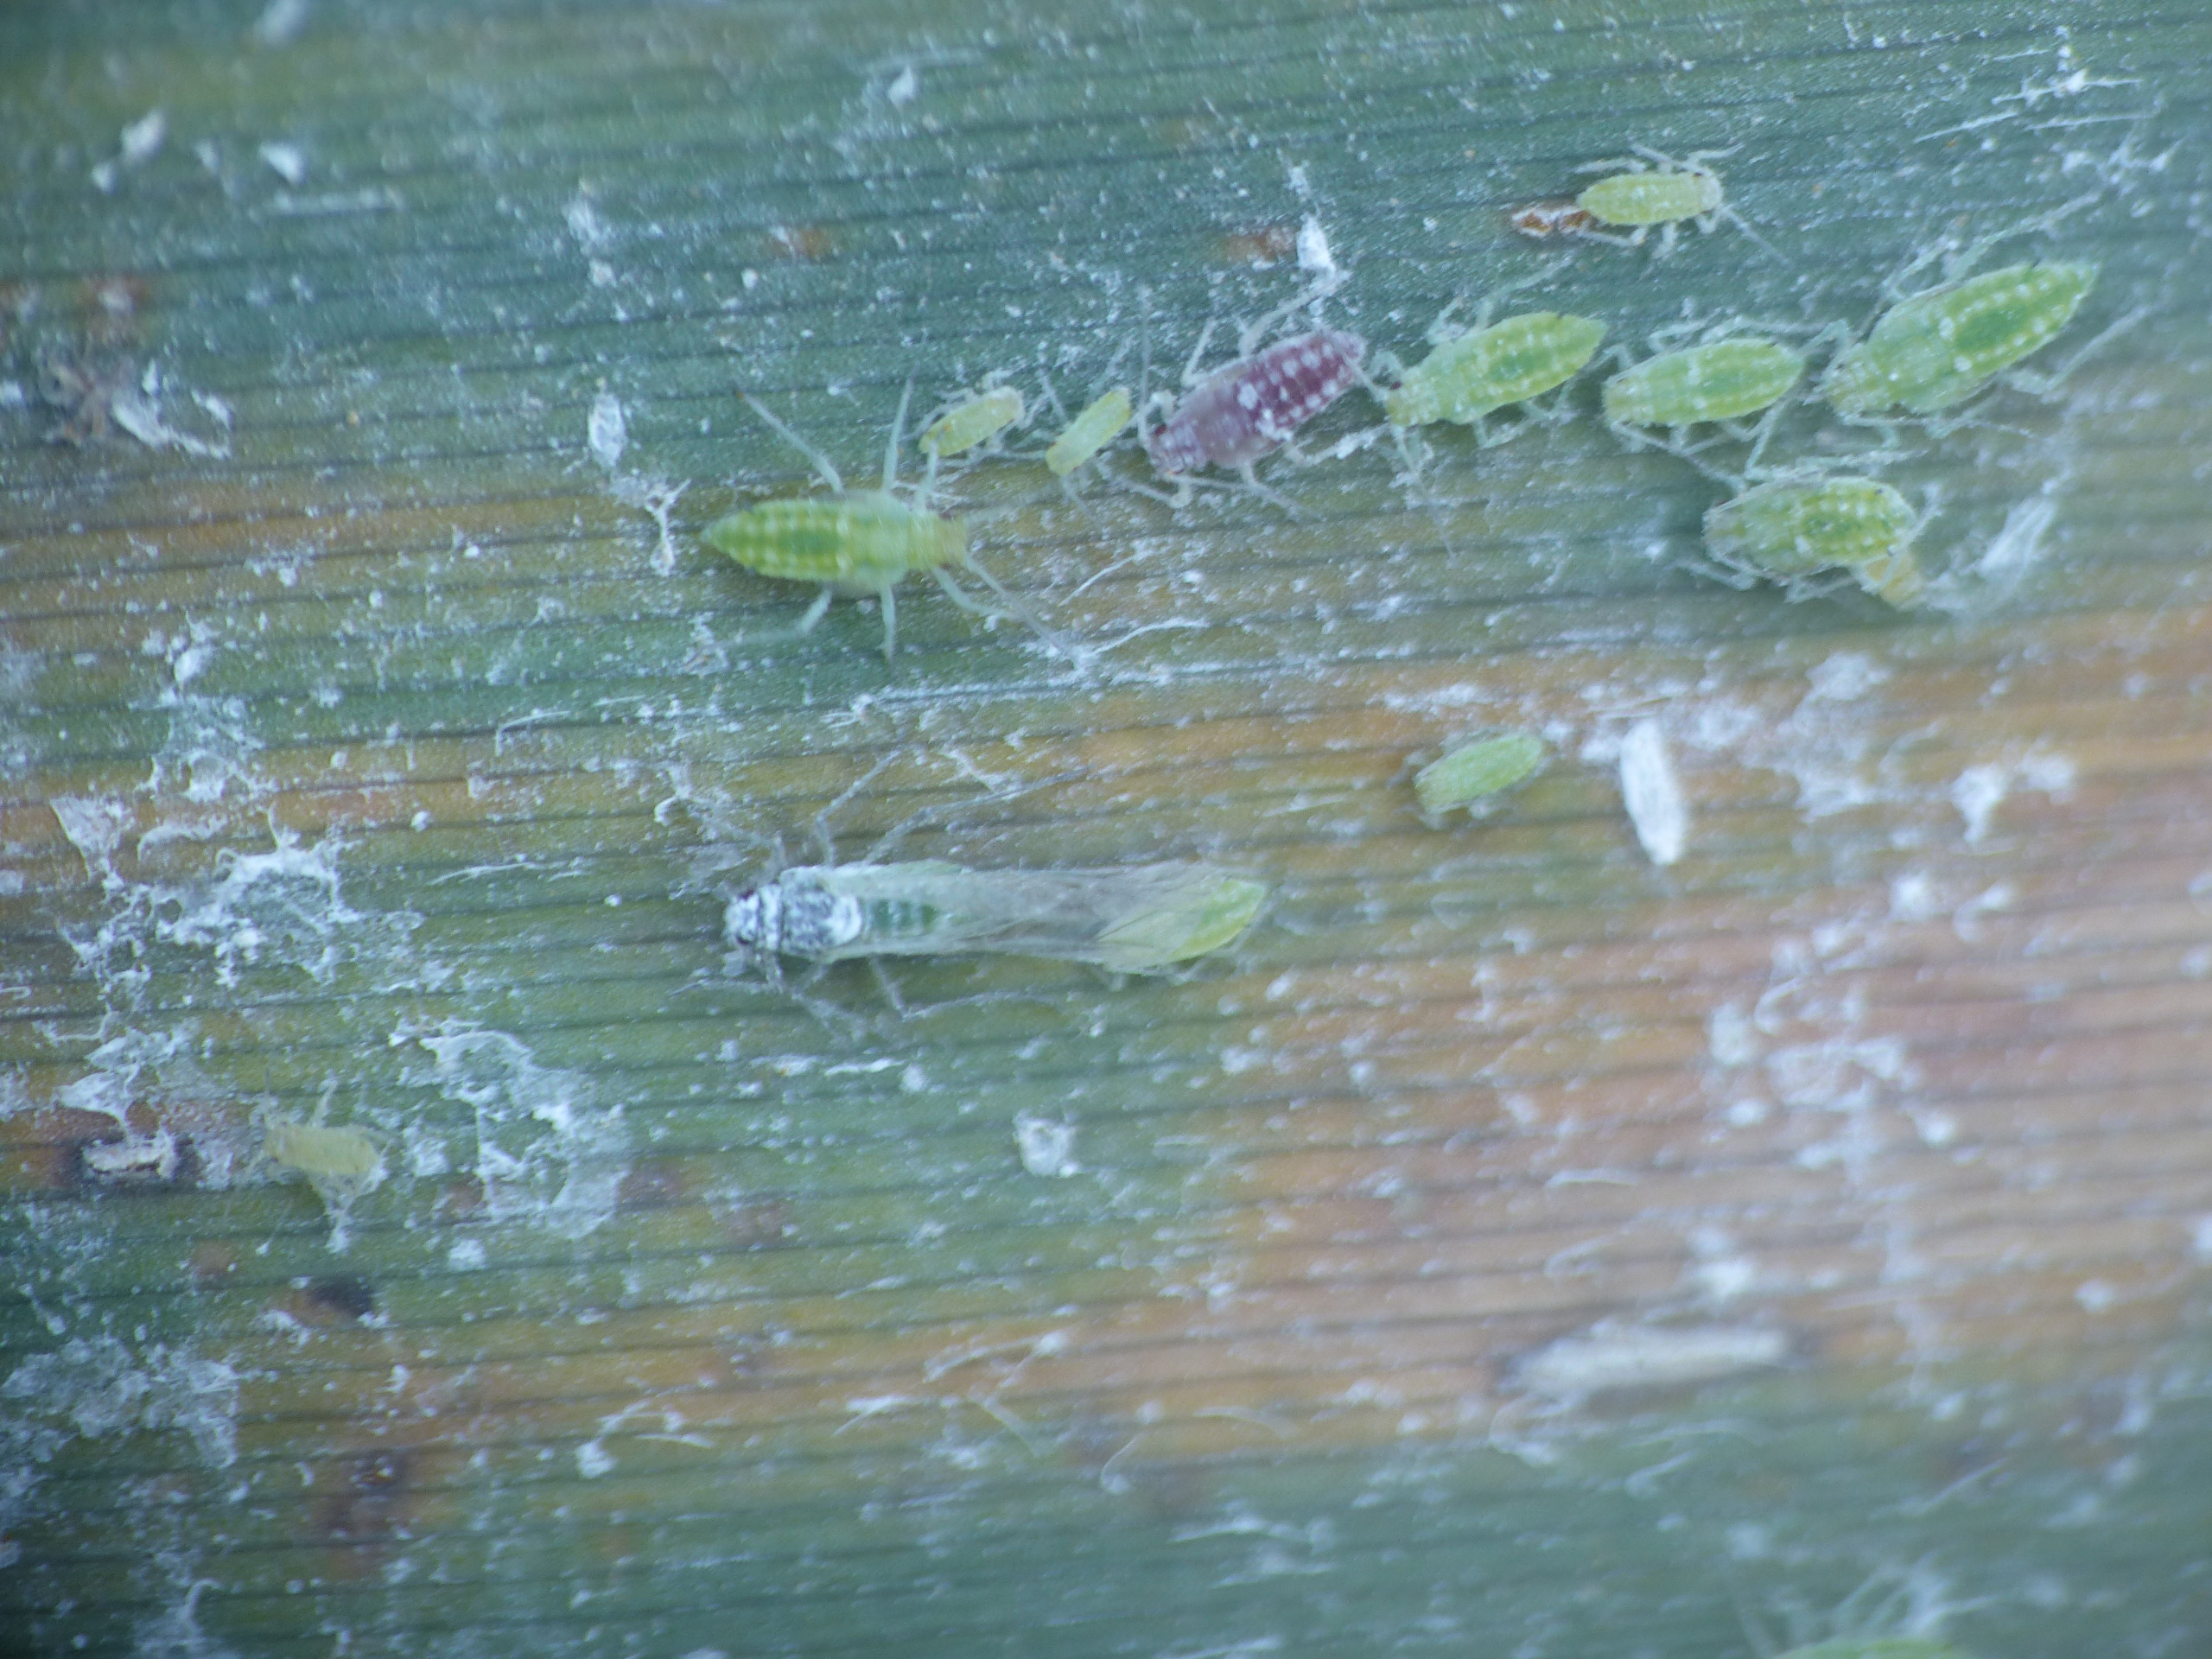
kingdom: Animalia
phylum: Arthropoda
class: Insecta
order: Hemiptera
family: Aphididae
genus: Hyalopterus
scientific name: Hyalopterus pruni
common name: Melet blommebladlus
